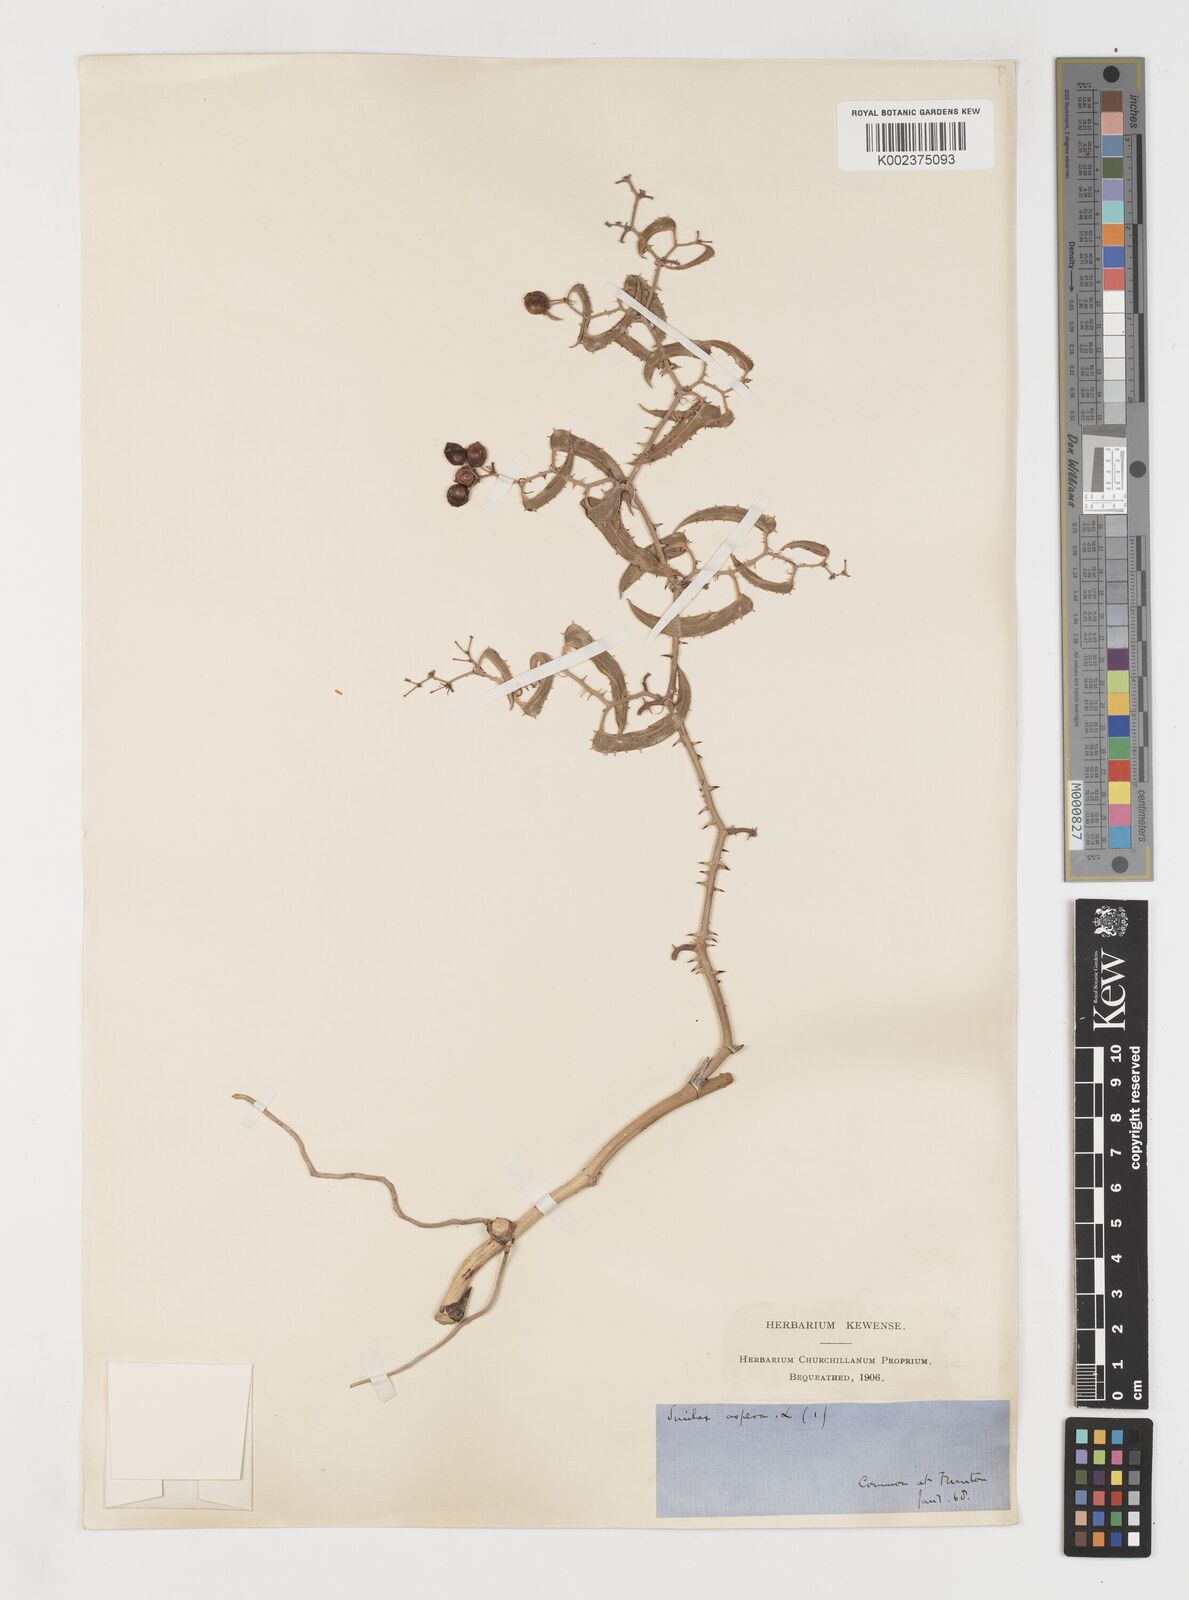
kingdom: Plantae
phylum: Tracheophyta
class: Liliopsida
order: Liliales
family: Smilacaceae
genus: Smilax
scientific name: Smilax aspera
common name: Common smilax
